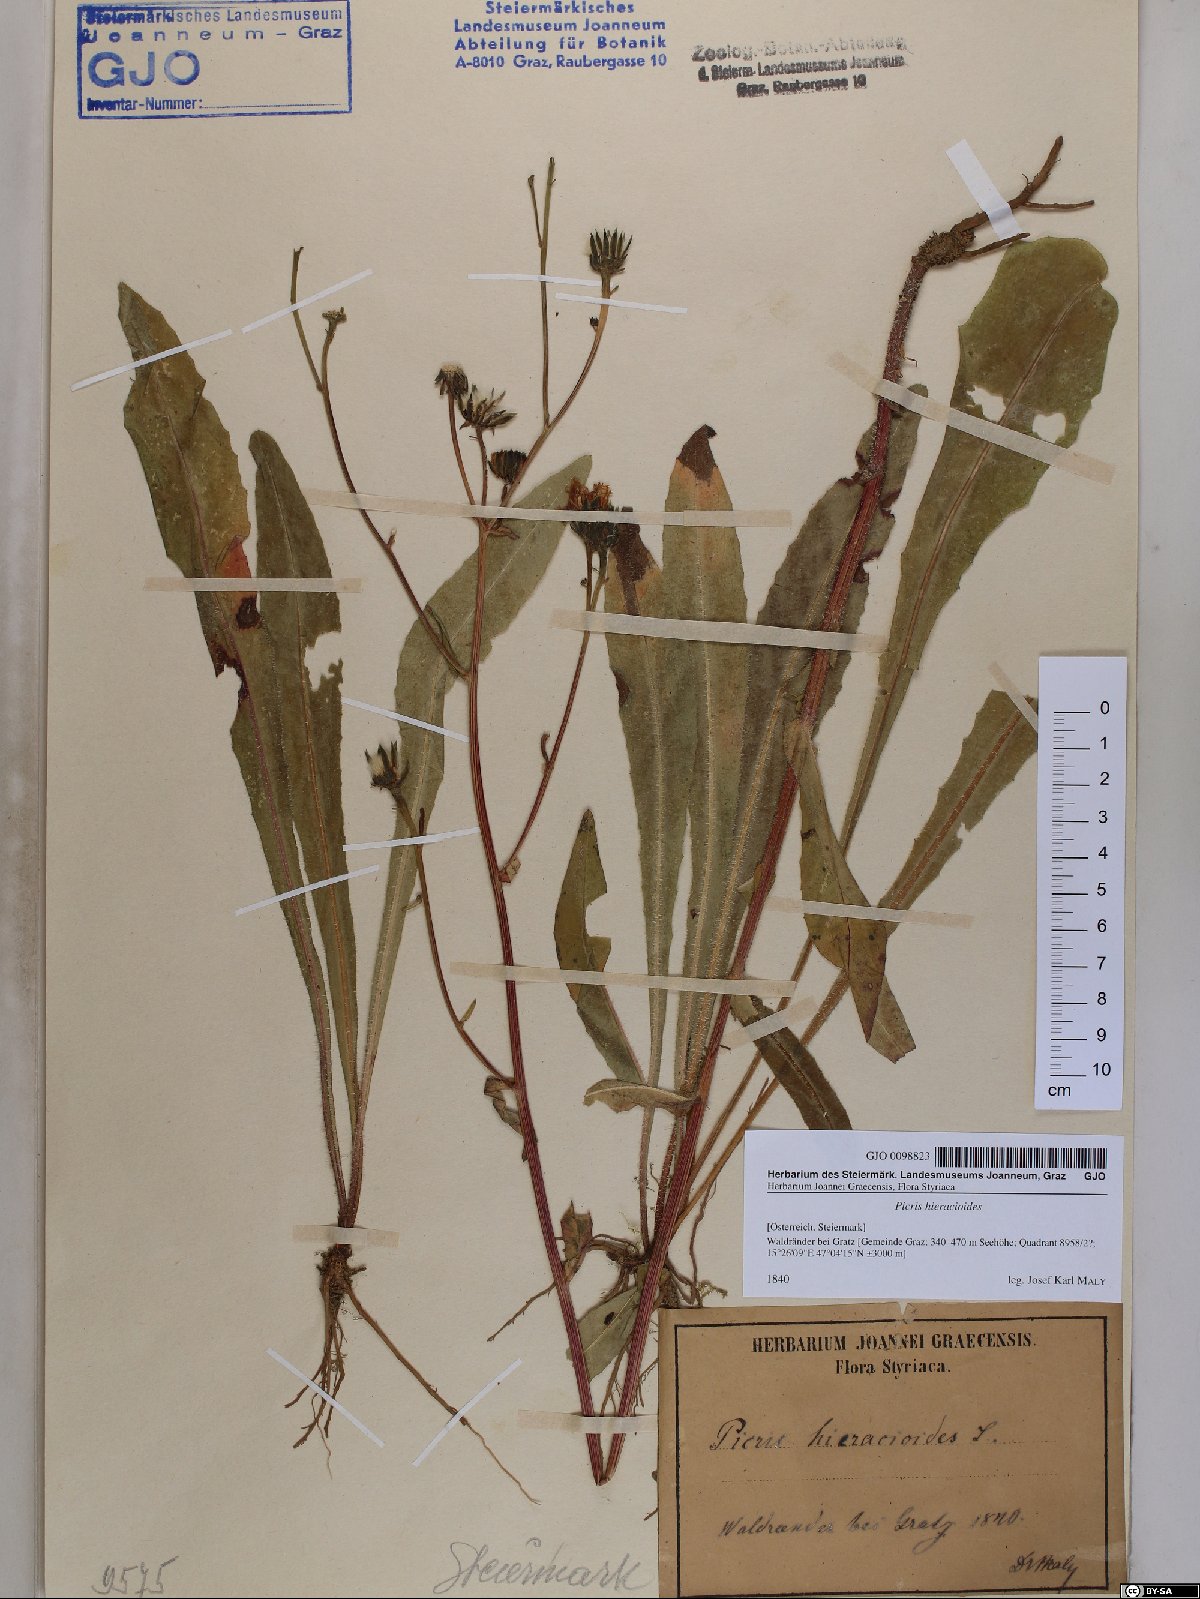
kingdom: Plantae
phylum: Tracheophyta
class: Magnoliopsida
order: Asterales
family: Asteraceae
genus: Picris
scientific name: Picris hieracioides
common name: Hawkweed oxtongue
